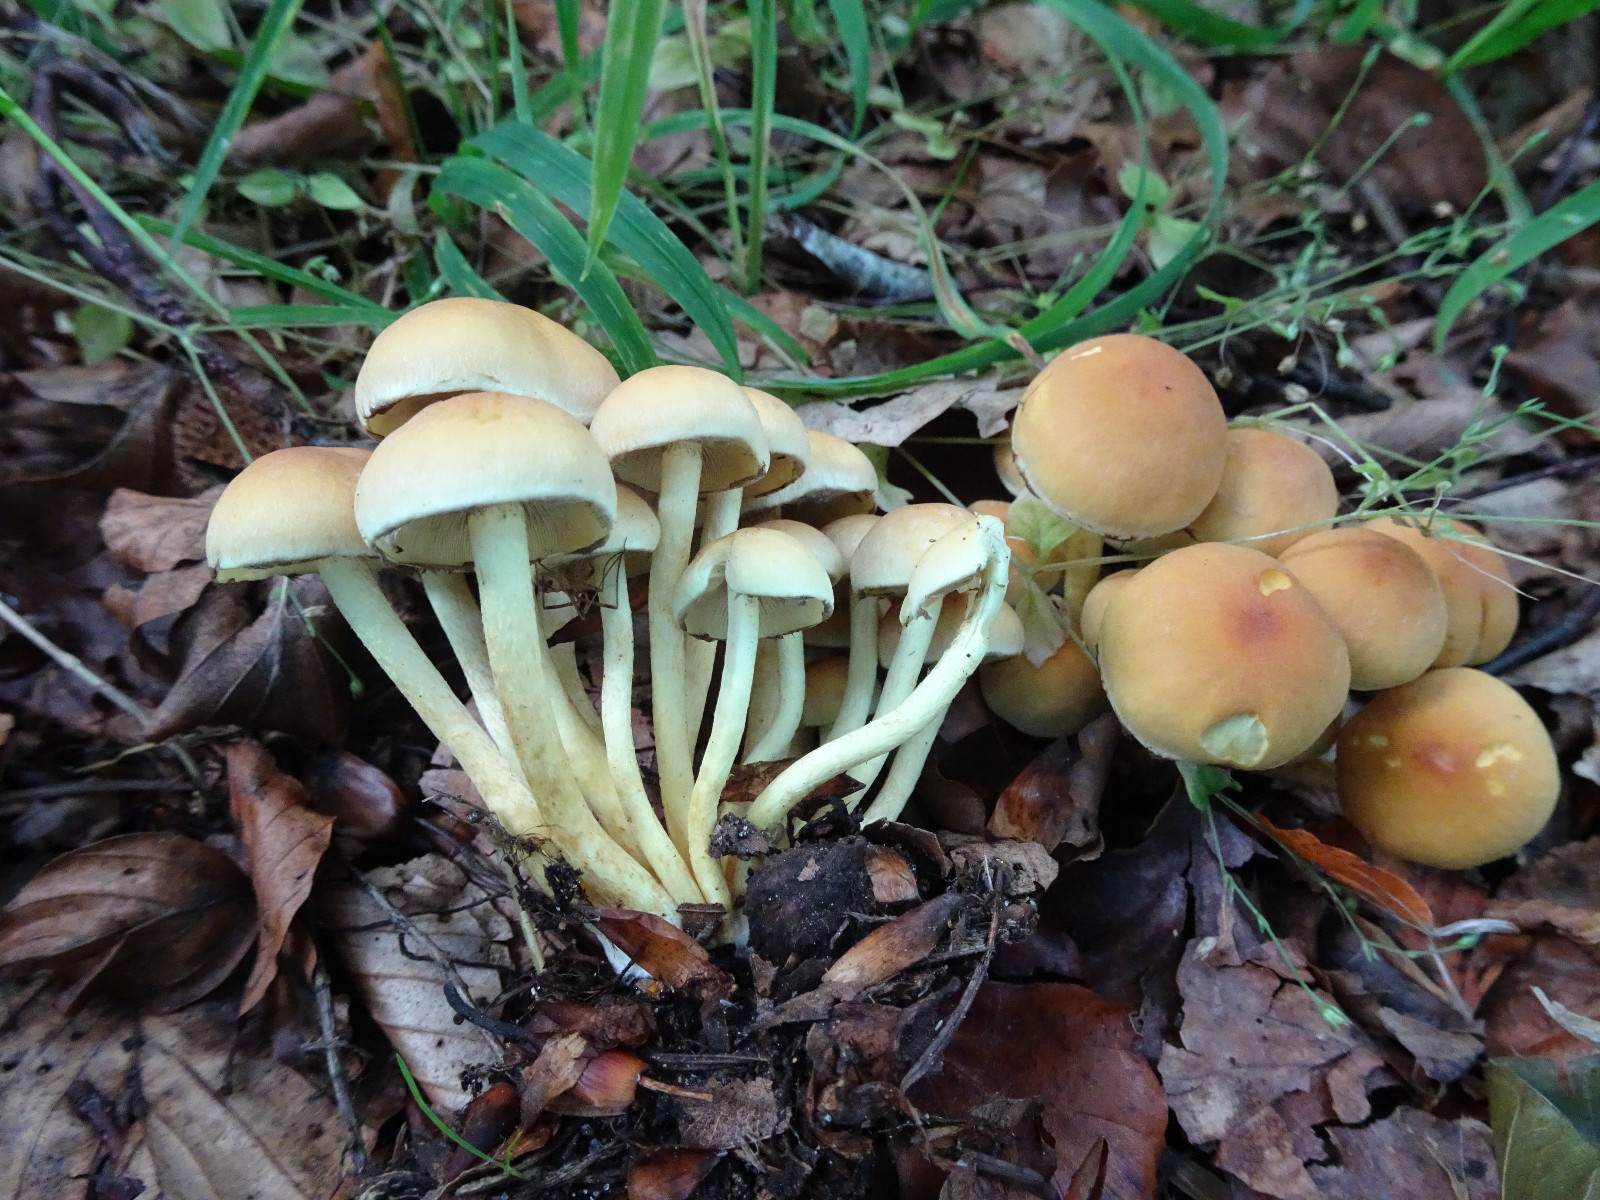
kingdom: Fungi
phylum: Basidiomycota
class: Agaricomycetes
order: Agaricales
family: Strophariaceae
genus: Hypholoma
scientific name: Hypholoma fasciculare
